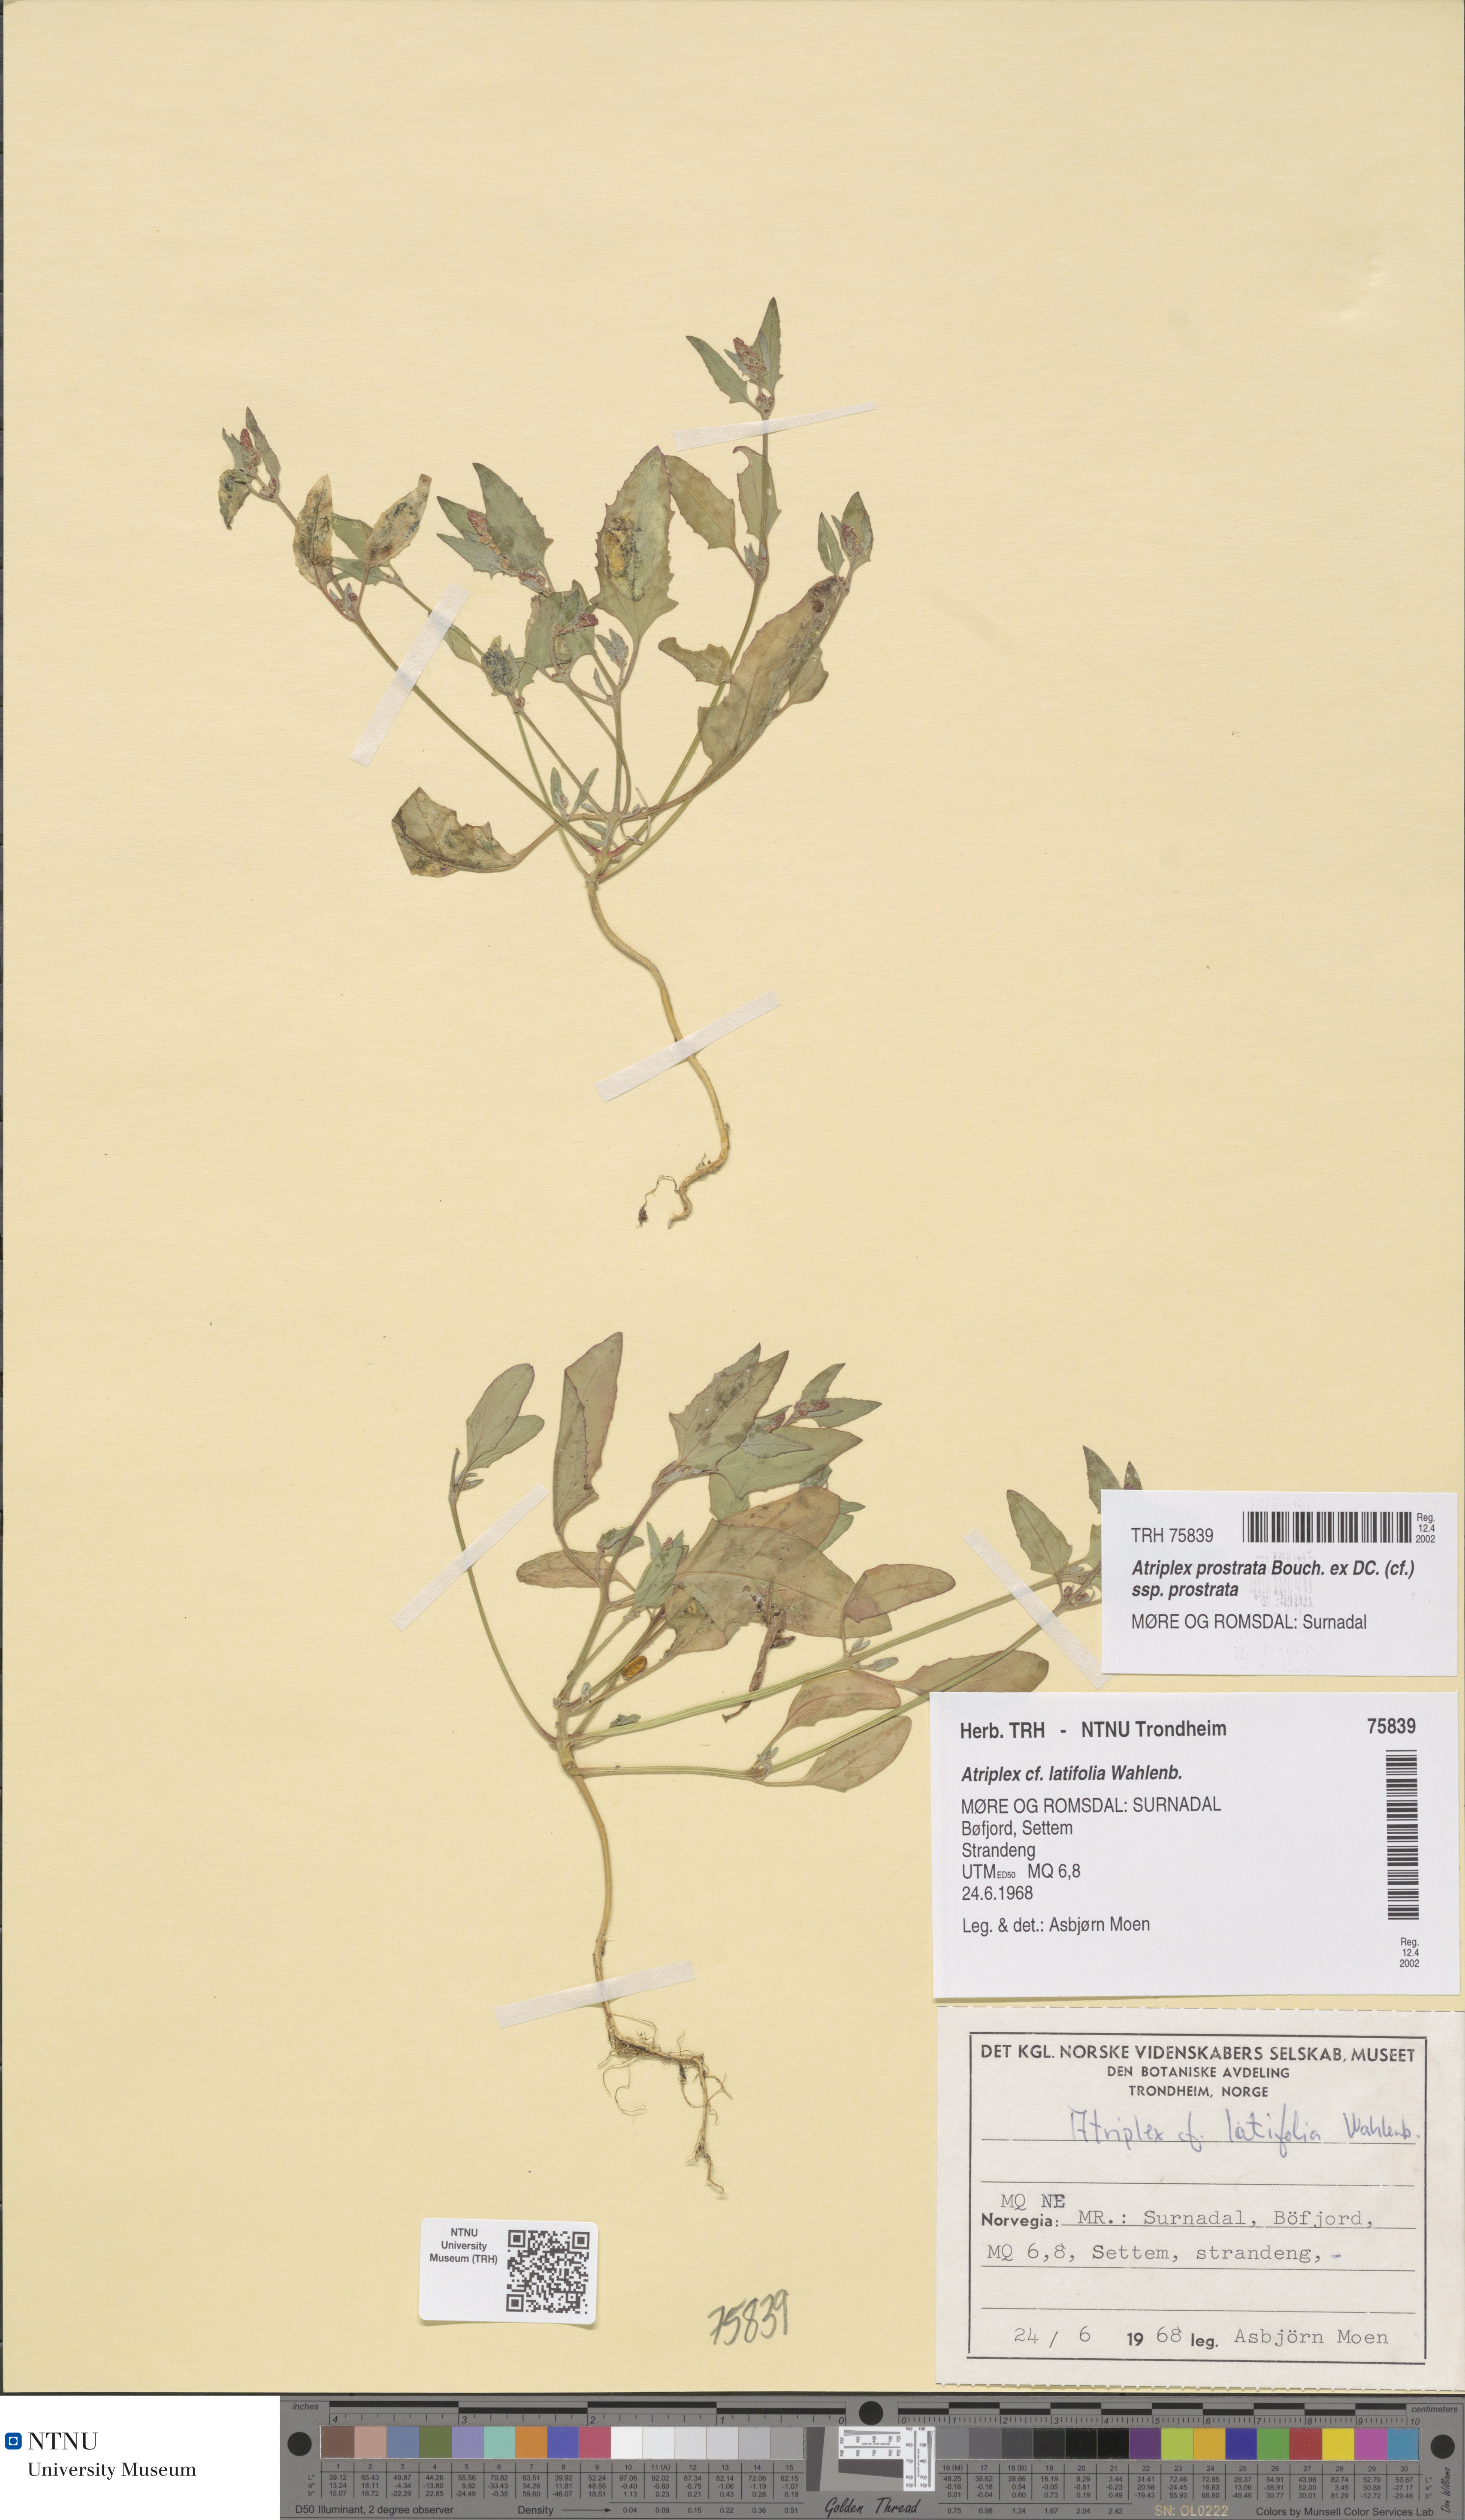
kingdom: Plantae
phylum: Tracheophyta
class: Magnoliopsida
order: Caryophyllales
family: Amaranthaceae
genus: Atriplex
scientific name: Atriplex prostrata
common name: Spear-leaved orache
